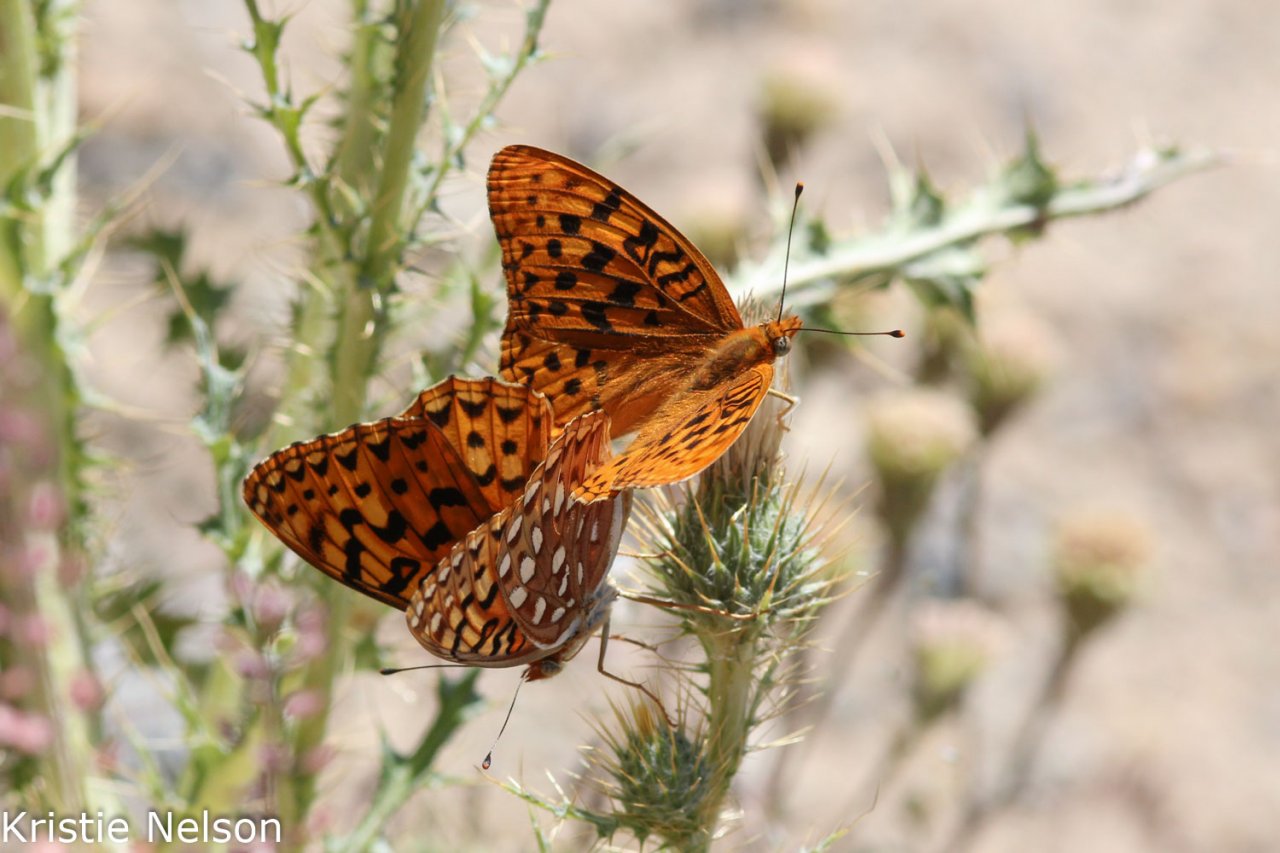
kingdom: Animalia
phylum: Arthropoda
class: Insecta
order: Lepidoptera
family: Nymphalidae
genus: Speyeria
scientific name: Speyeria zerene
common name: Zerene Fritillary
